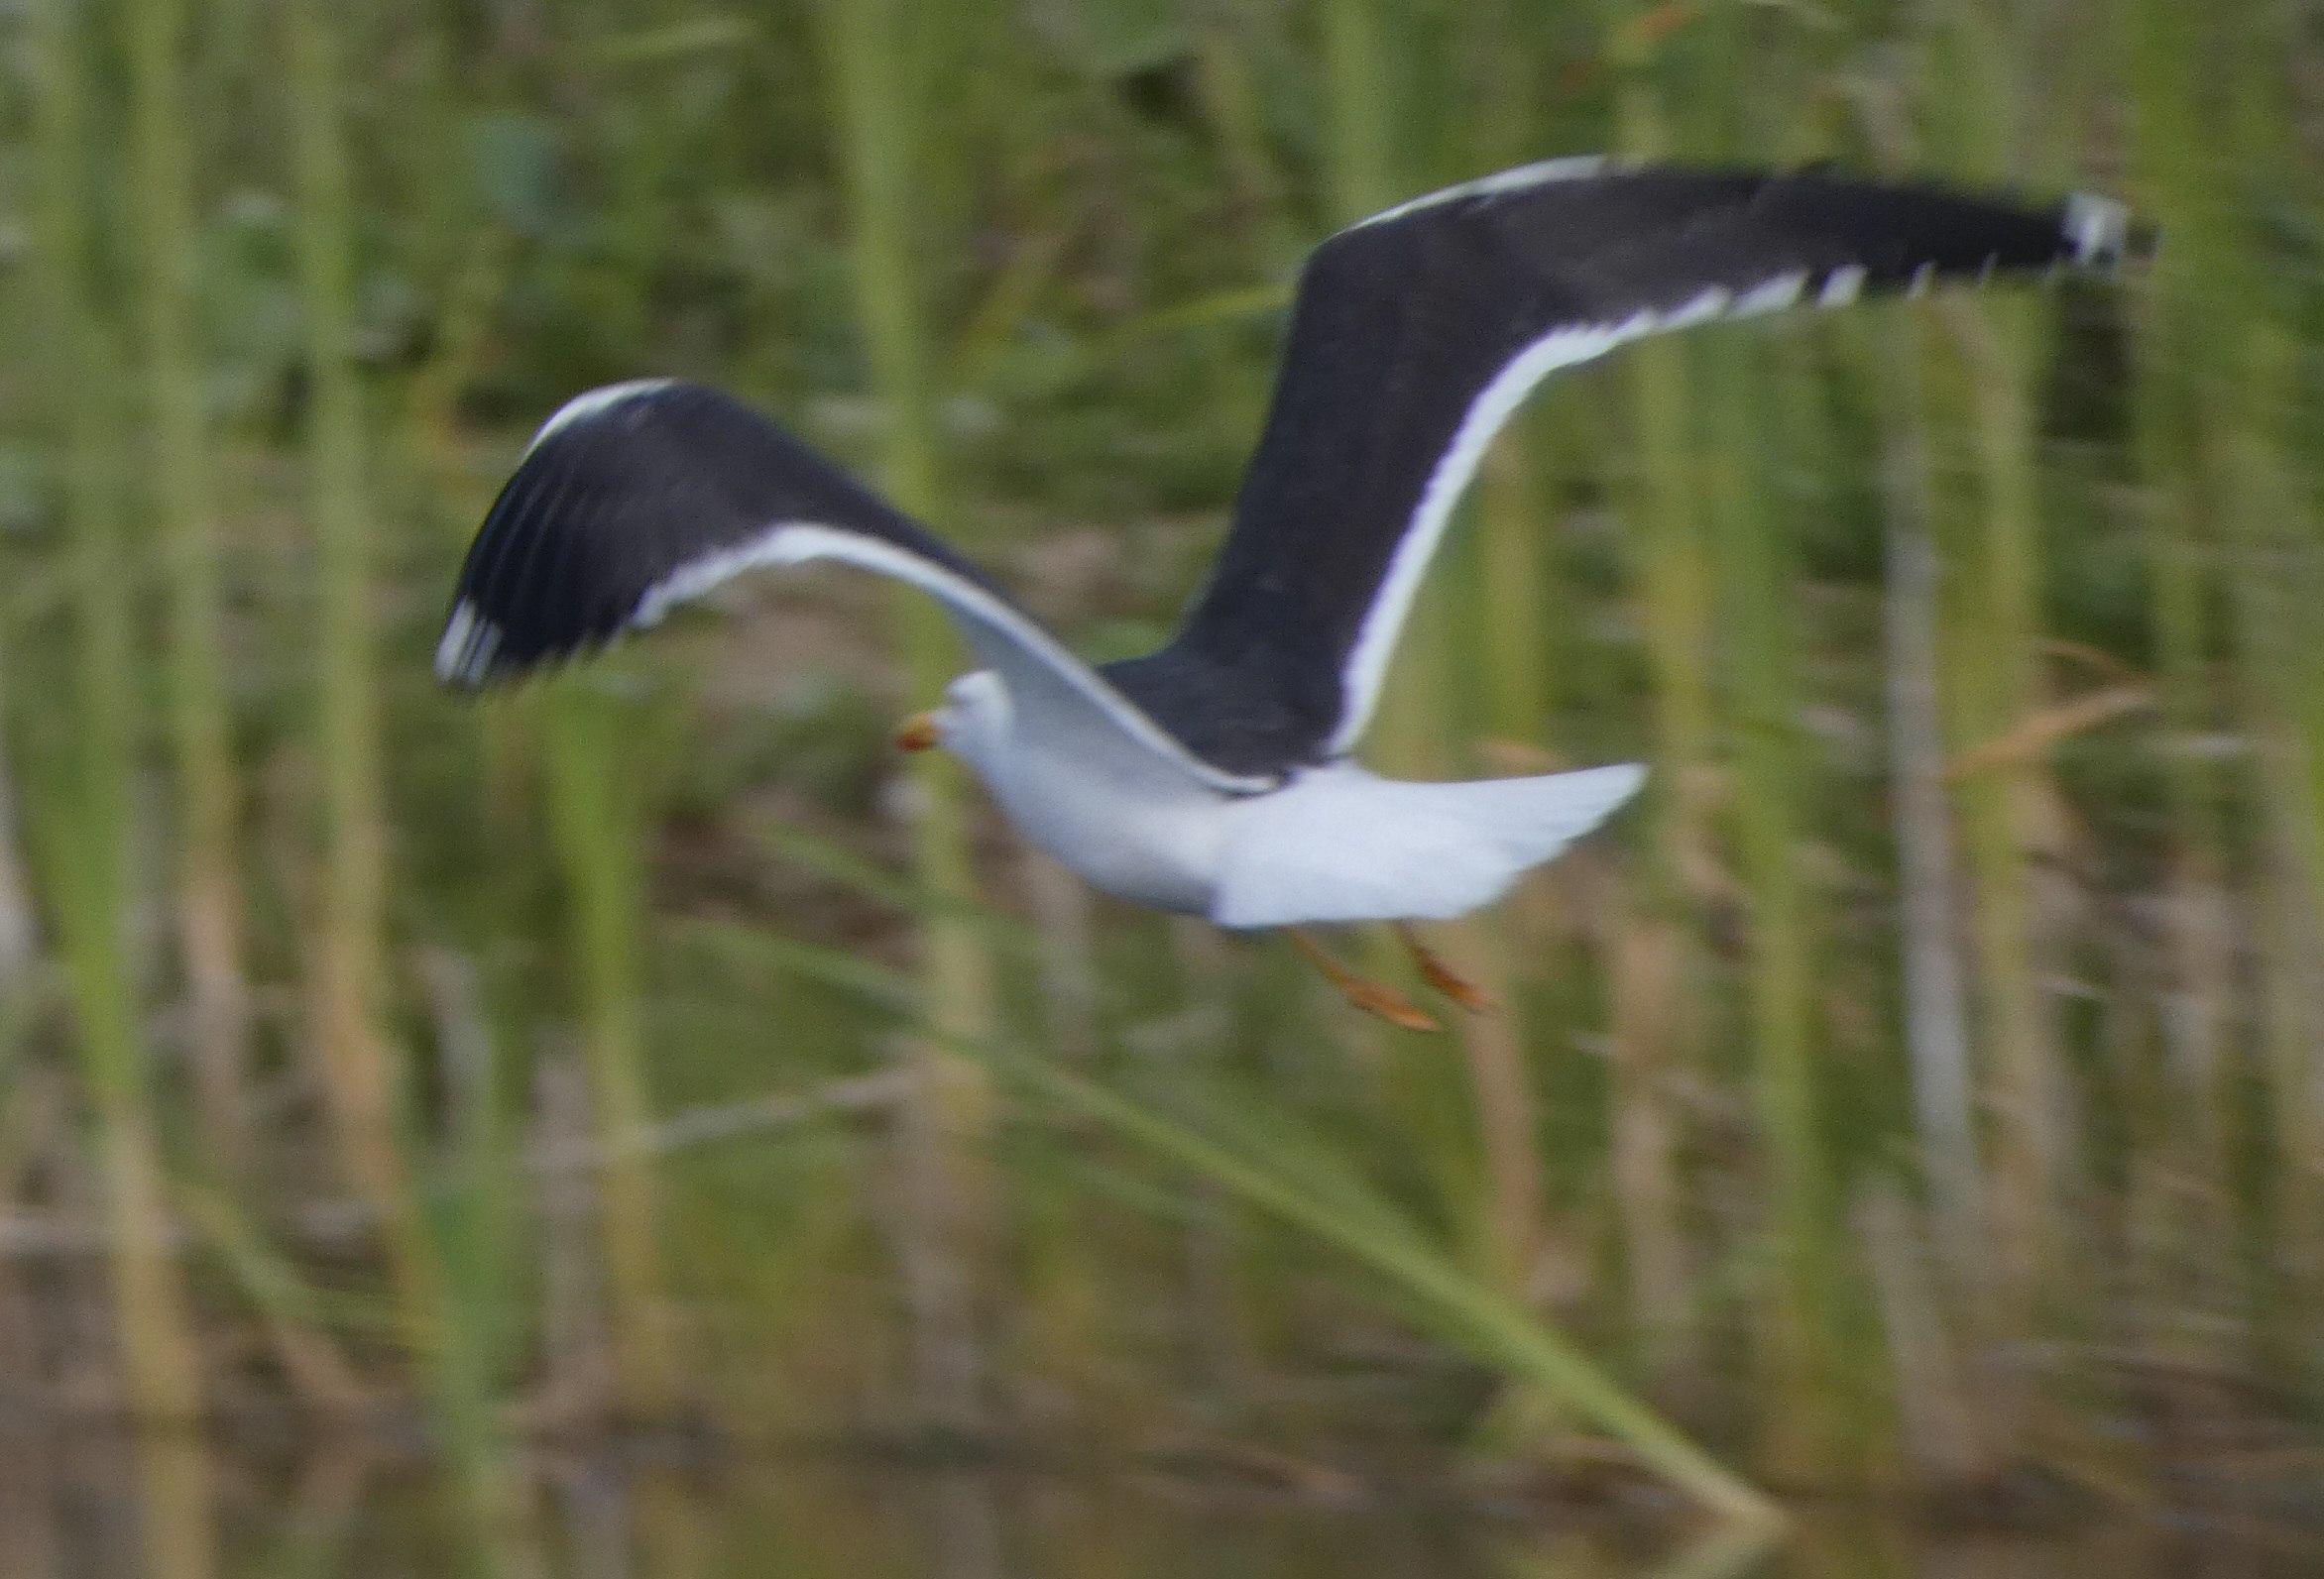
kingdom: Animalia
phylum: Chordata
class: Aves
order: Charadriiformes
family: Laridae
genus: Larus
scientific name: Larus fuscus
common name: Sildemåge
